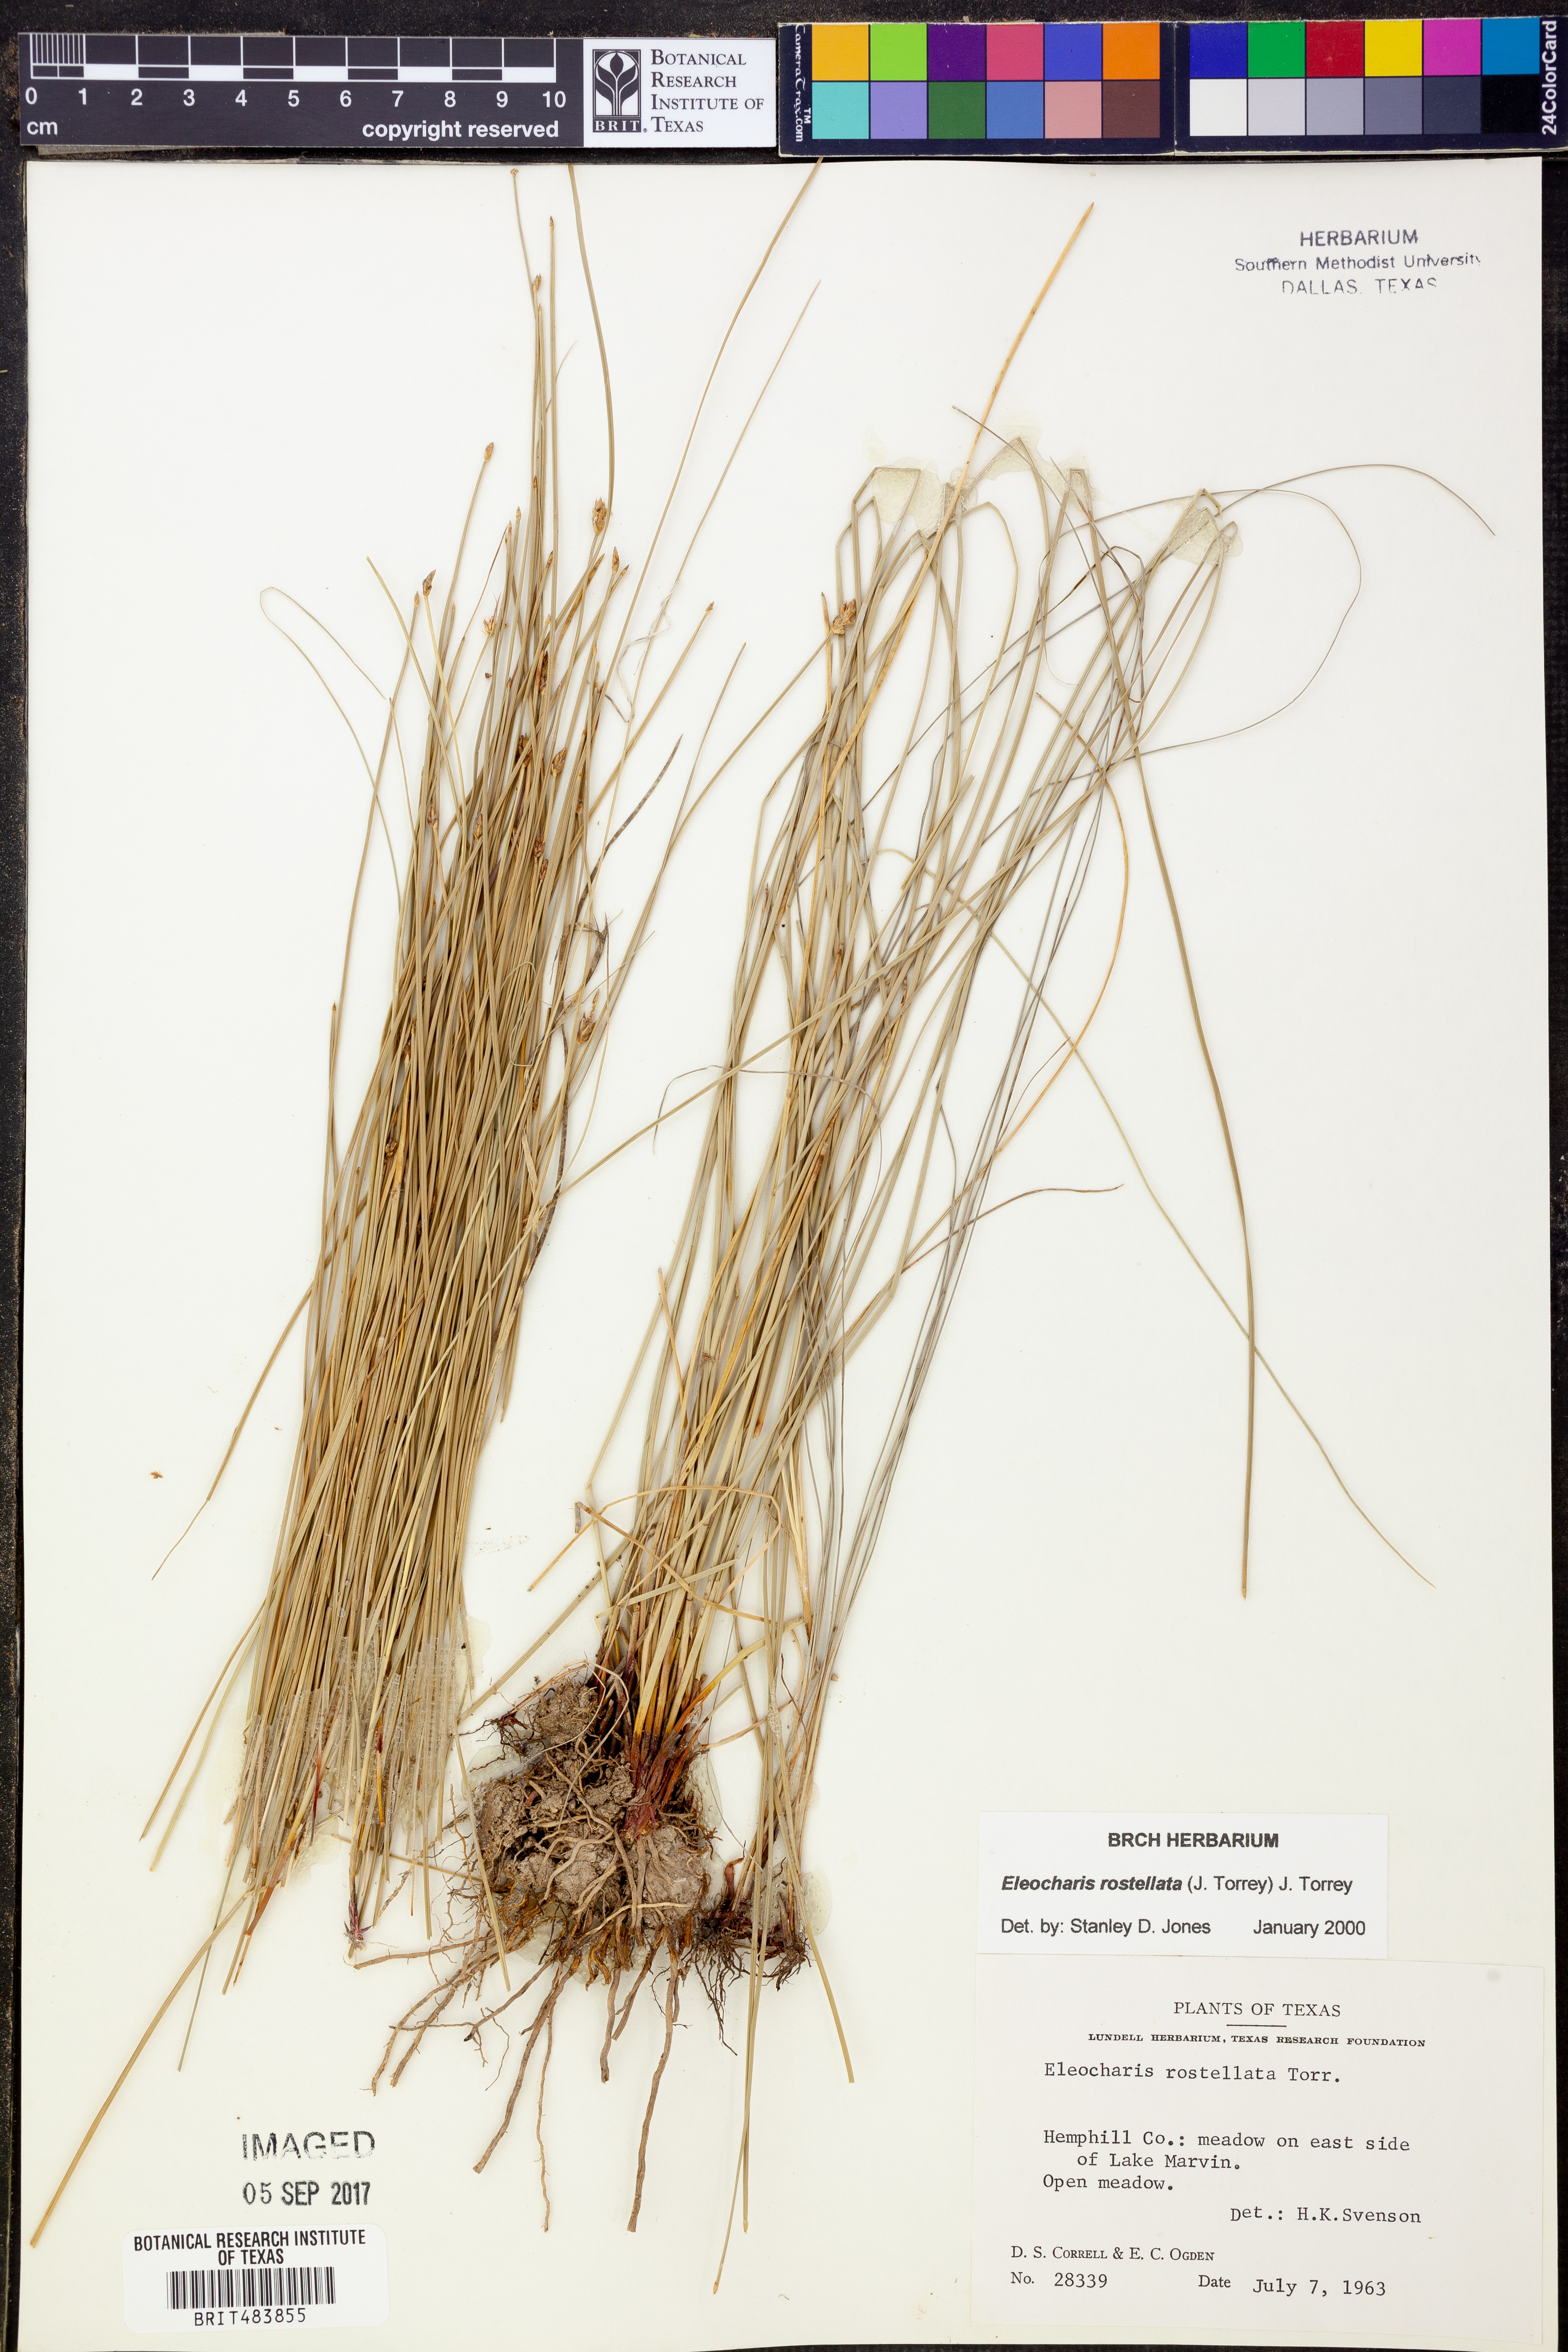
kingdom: Plantae
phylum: Tracheophyta
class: Liliopsida
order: Poales
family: Cyperaceae
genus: Eleocharis
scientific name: Eleocharis rostellata
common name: Walking sedge
